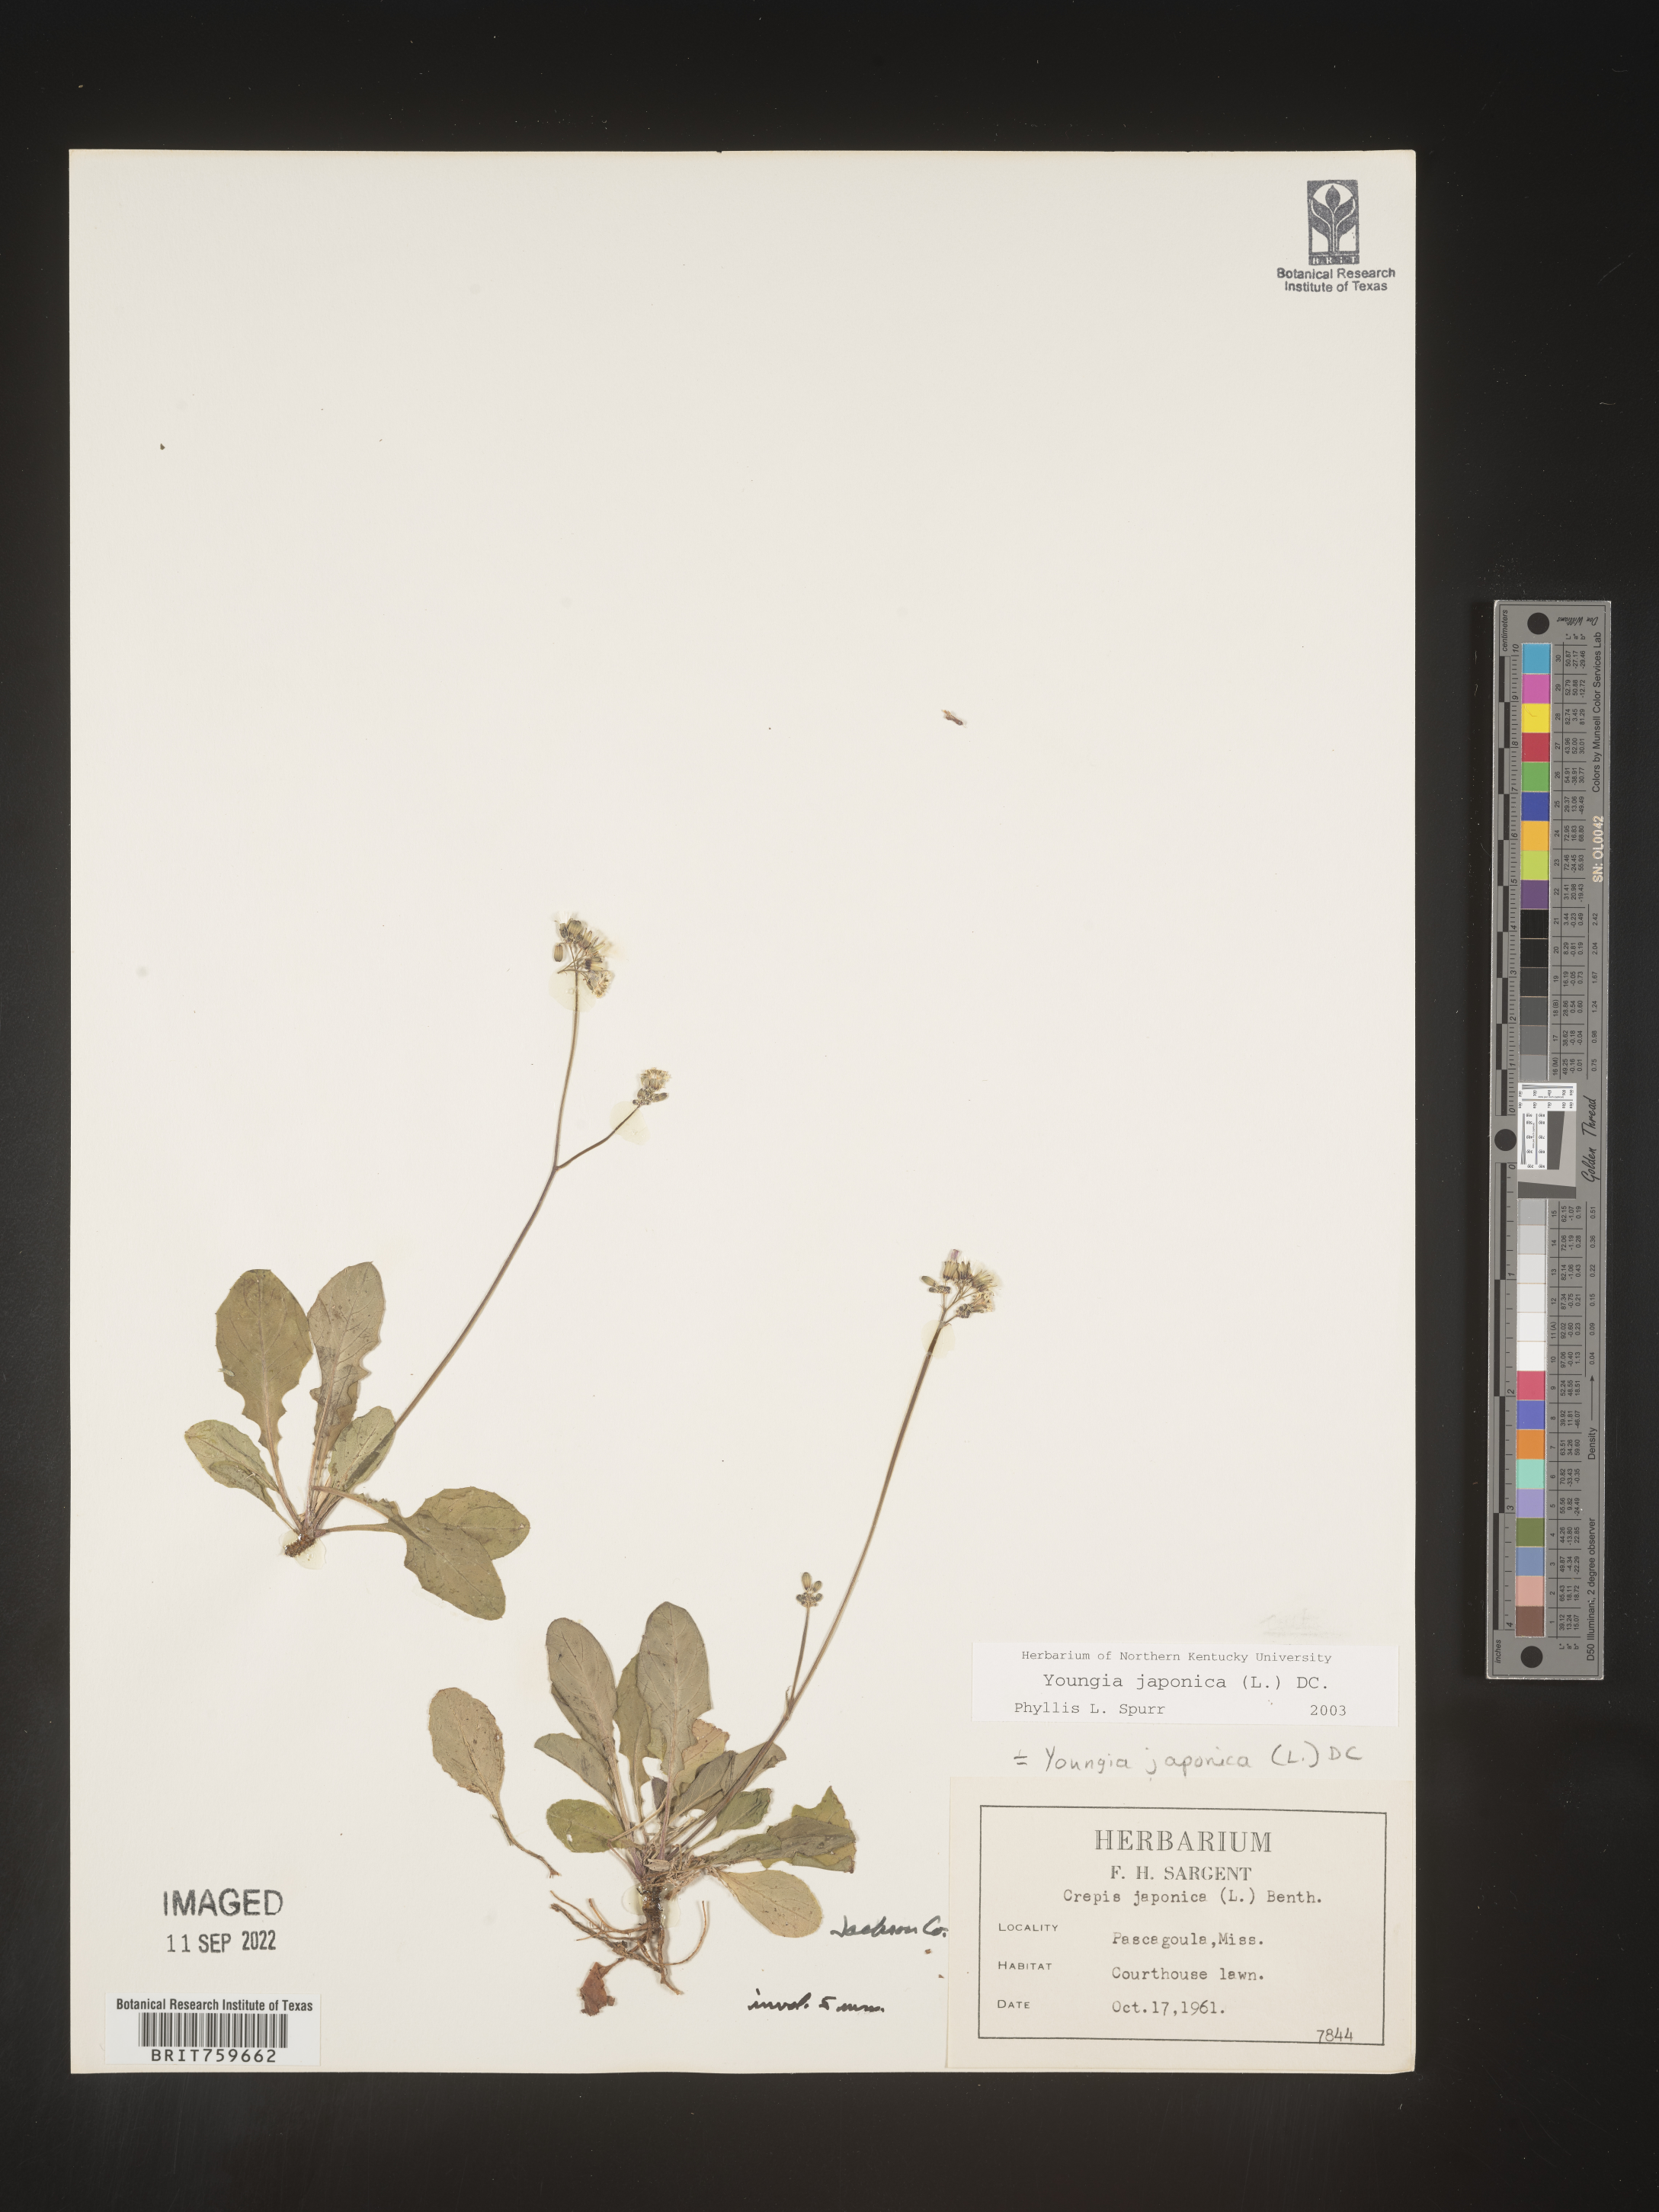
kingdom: Plantae
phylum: Tracheophyta
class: Magnoliopsida
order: Asterales
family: Asteraceae
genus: Youngia
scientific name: Youngia japonica
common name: Oriental false hawksbeard
